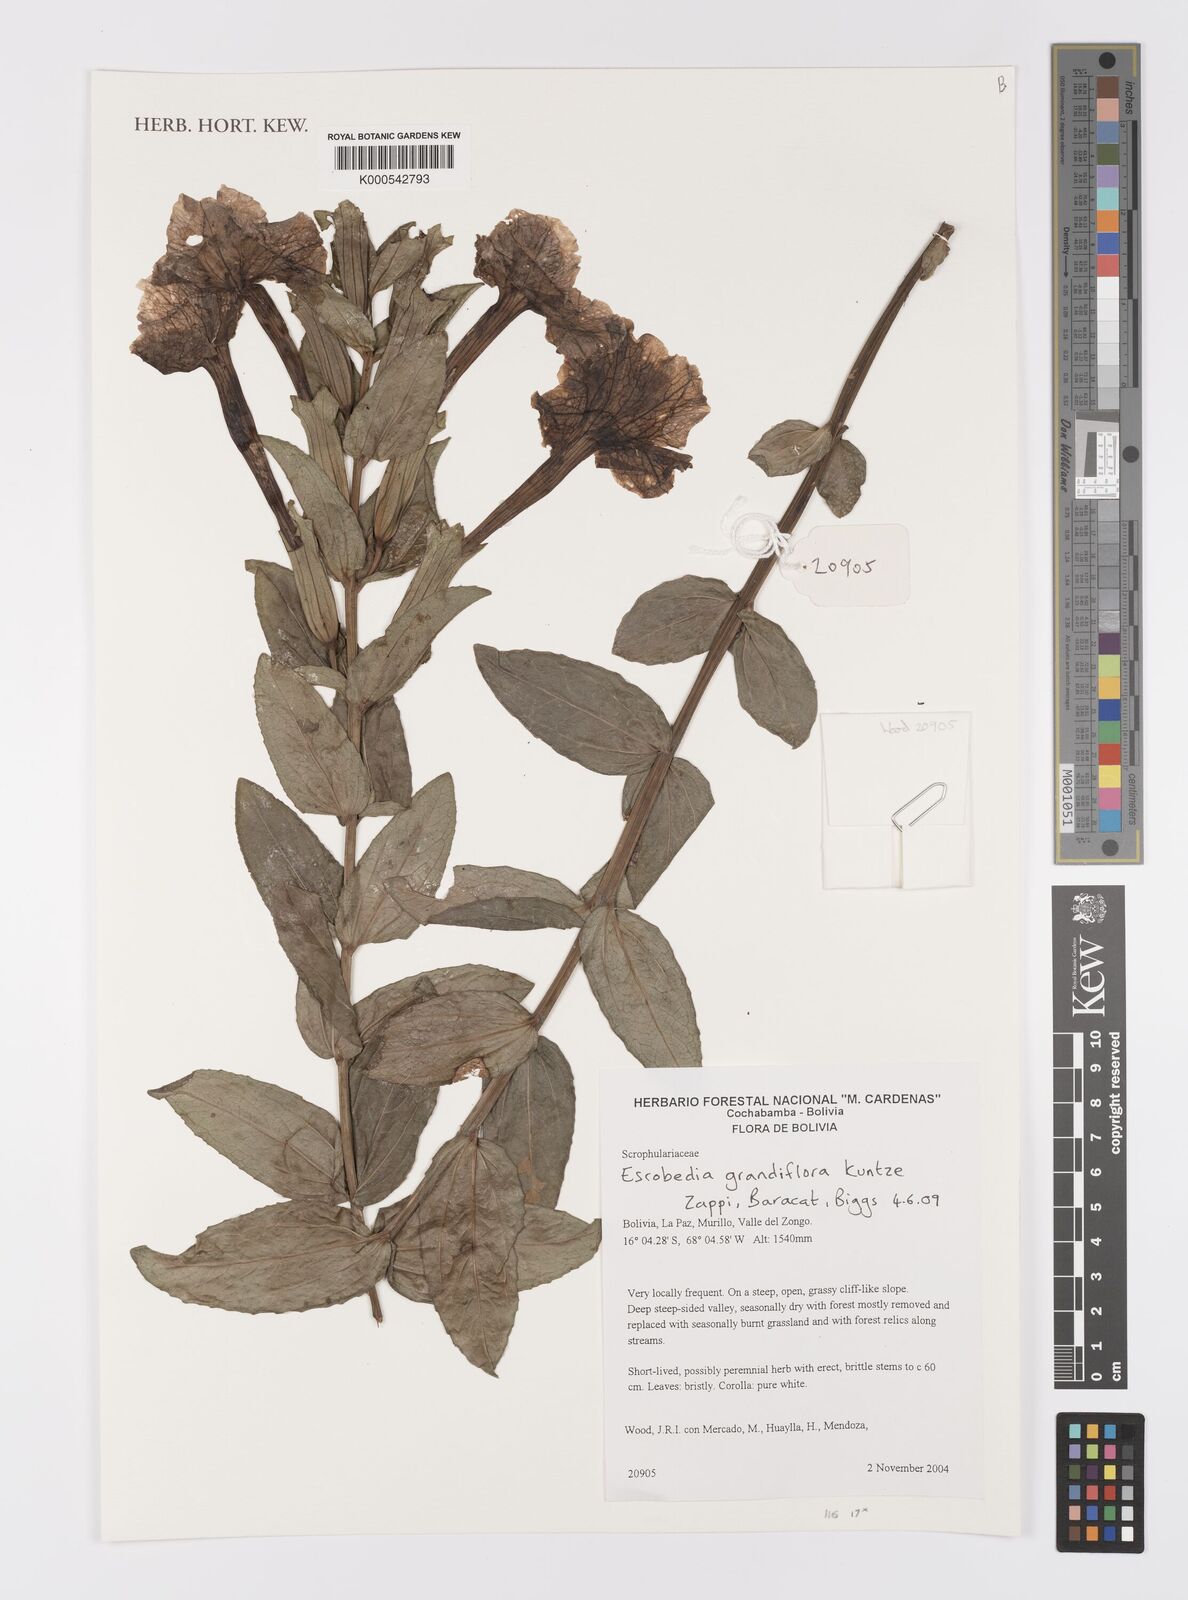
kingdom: Plantae
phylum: Tracheophyta
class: Magnoliopsida
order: Lamiales
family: Orobanchaceae
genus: Escobedia
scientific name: Escobedia grandiflora
